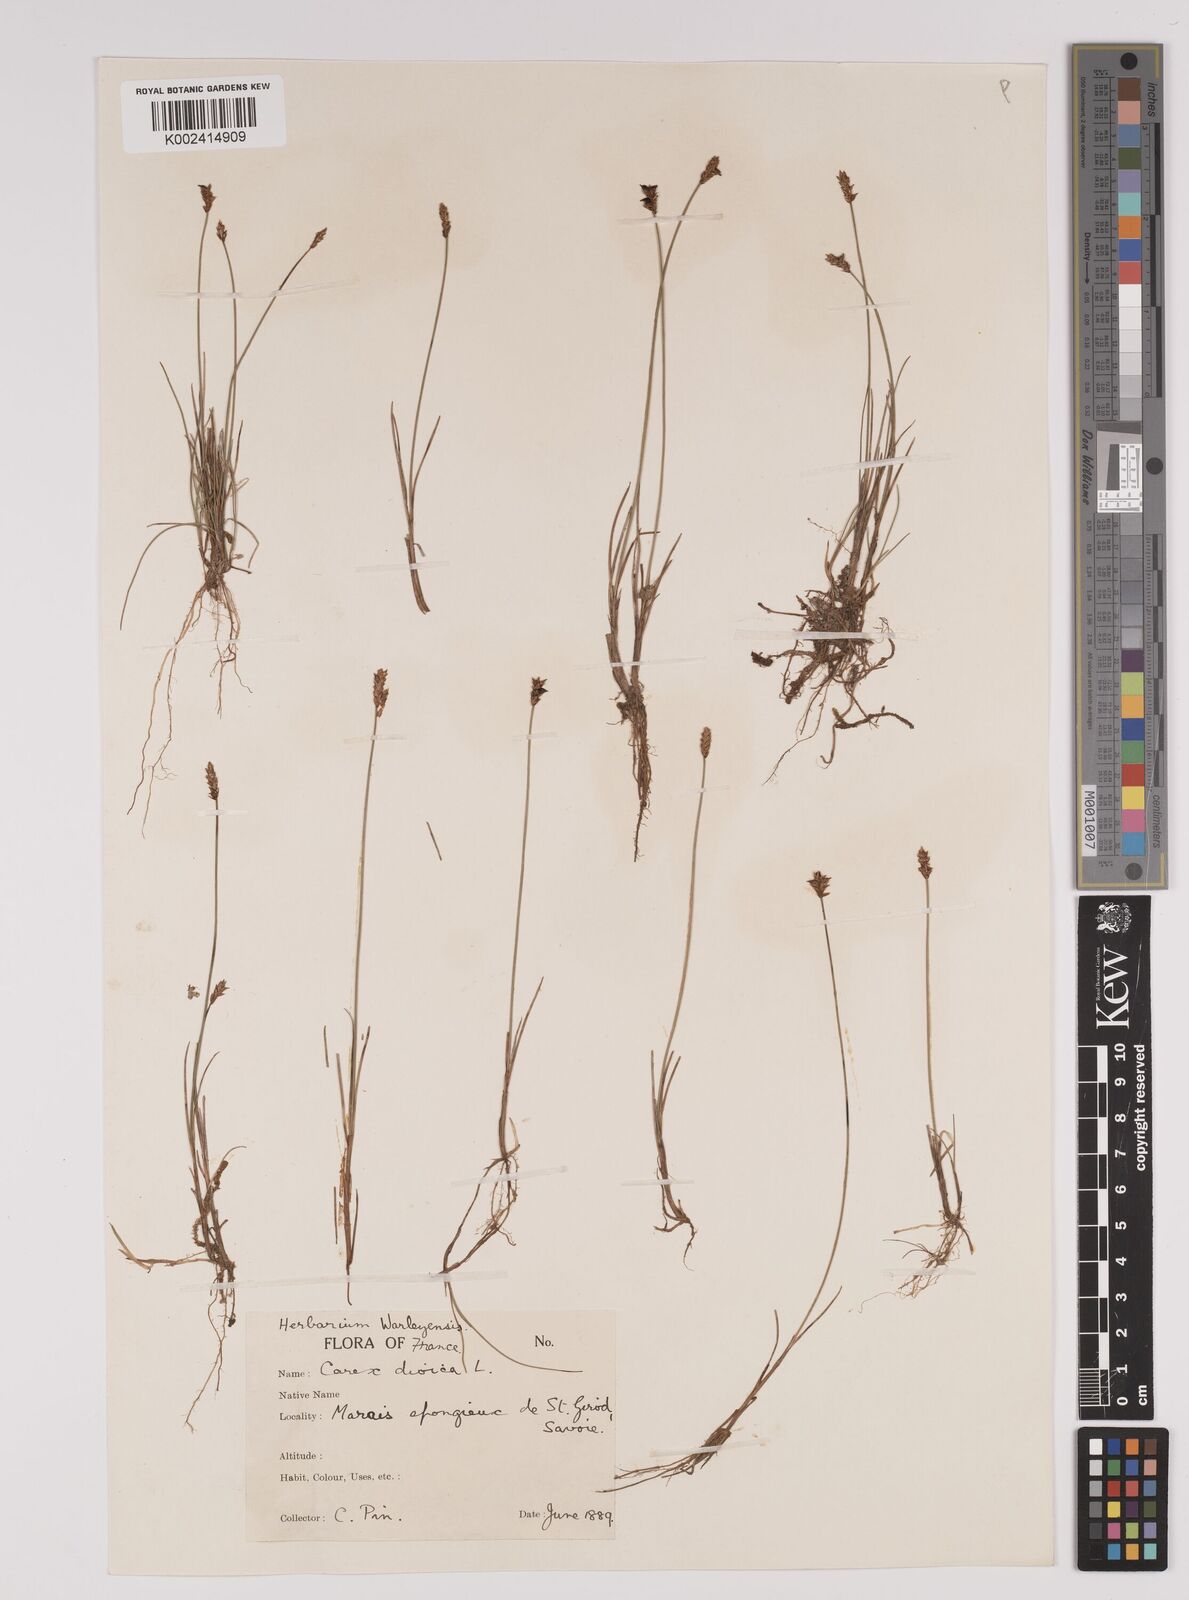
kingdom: Plantae
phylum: Tracheophyta
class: Liliopsida
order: Poales
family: Cyperaceae
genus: Carex
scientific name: Carex dioica
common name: Dioecious sedge
